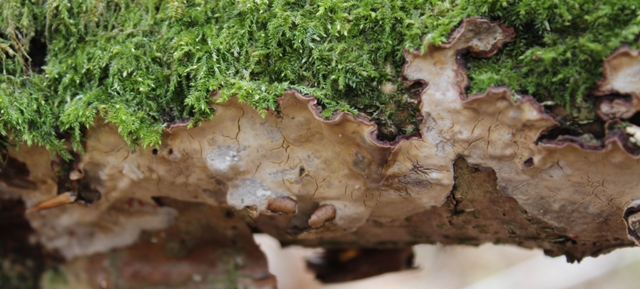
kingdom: Fungi
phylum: Basidiomycota
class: Agaricomycetes
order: Russulales
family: Stereaceae
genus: Stereum
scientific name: Stereum rugosum
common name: rynket lædersvamp
